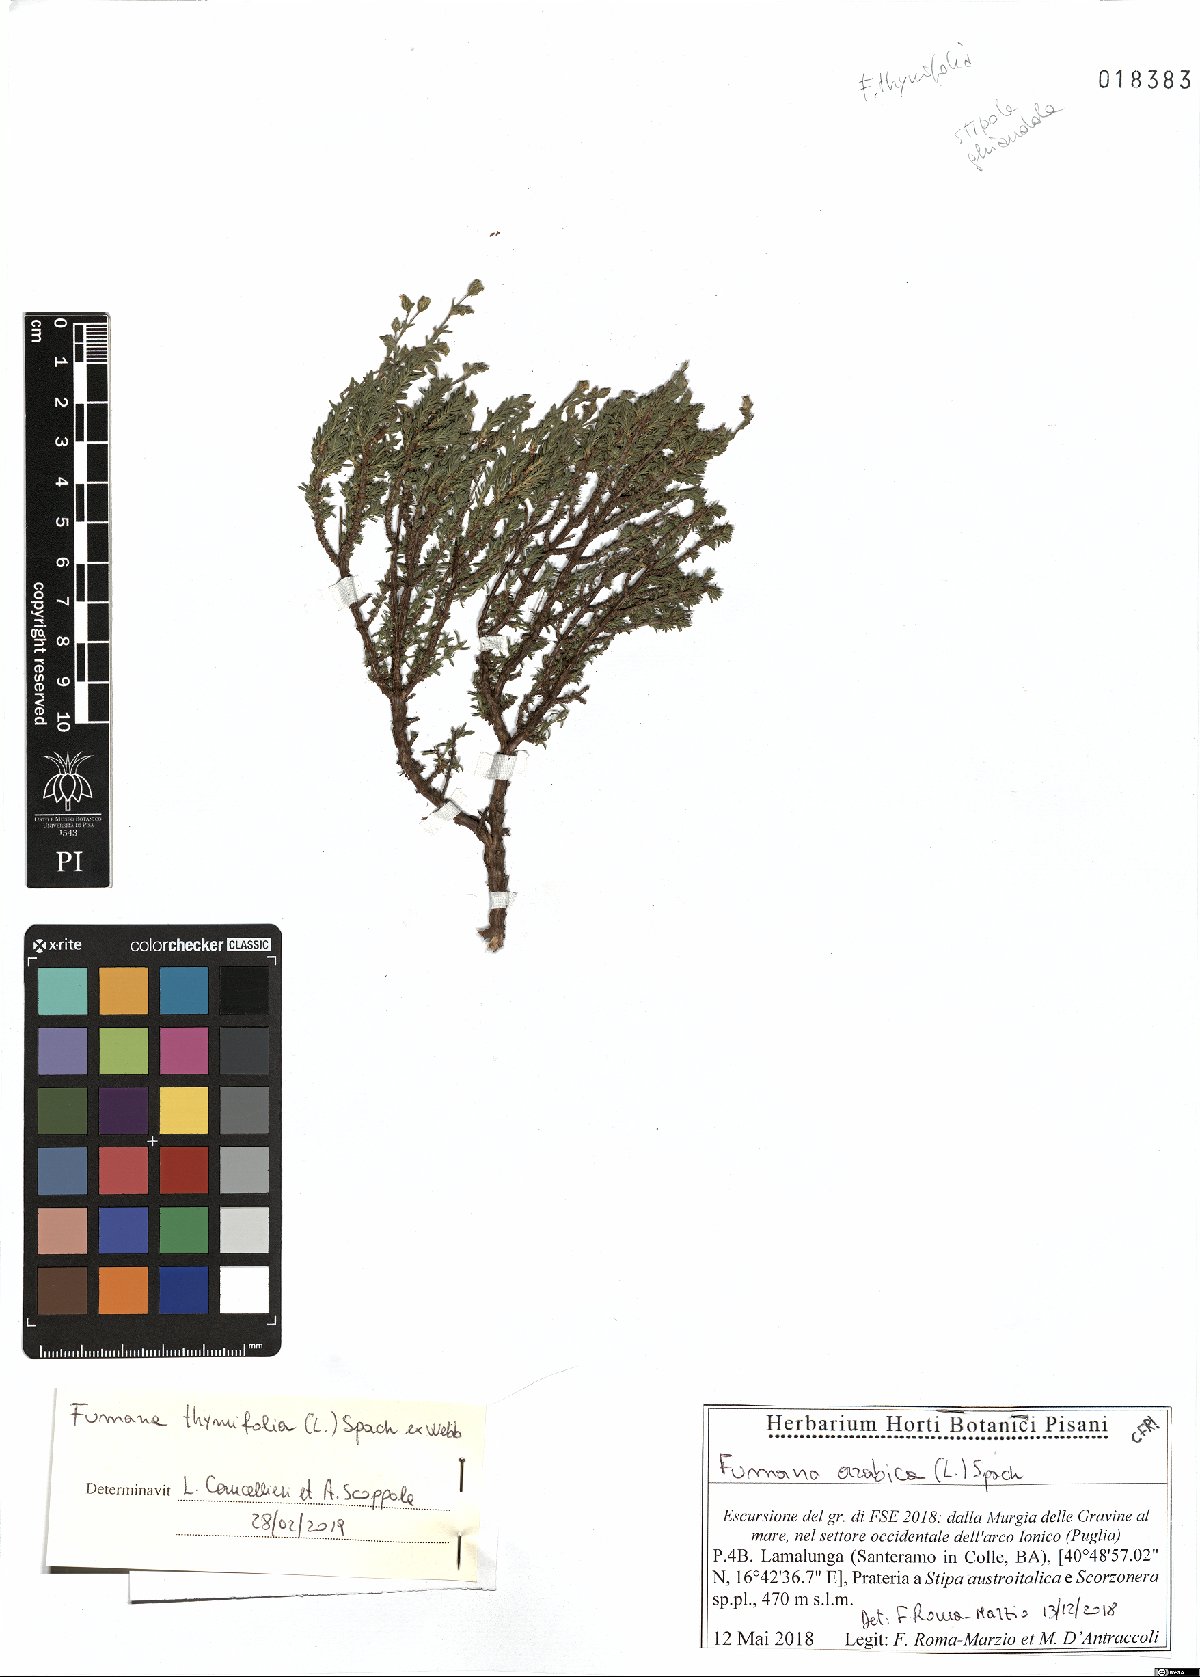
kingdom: Plantae
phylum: Tracheophyta
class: Magnoliopsida
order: Malvales
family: Cistaceae
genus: Fumana
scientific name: Fumana thymifolia
